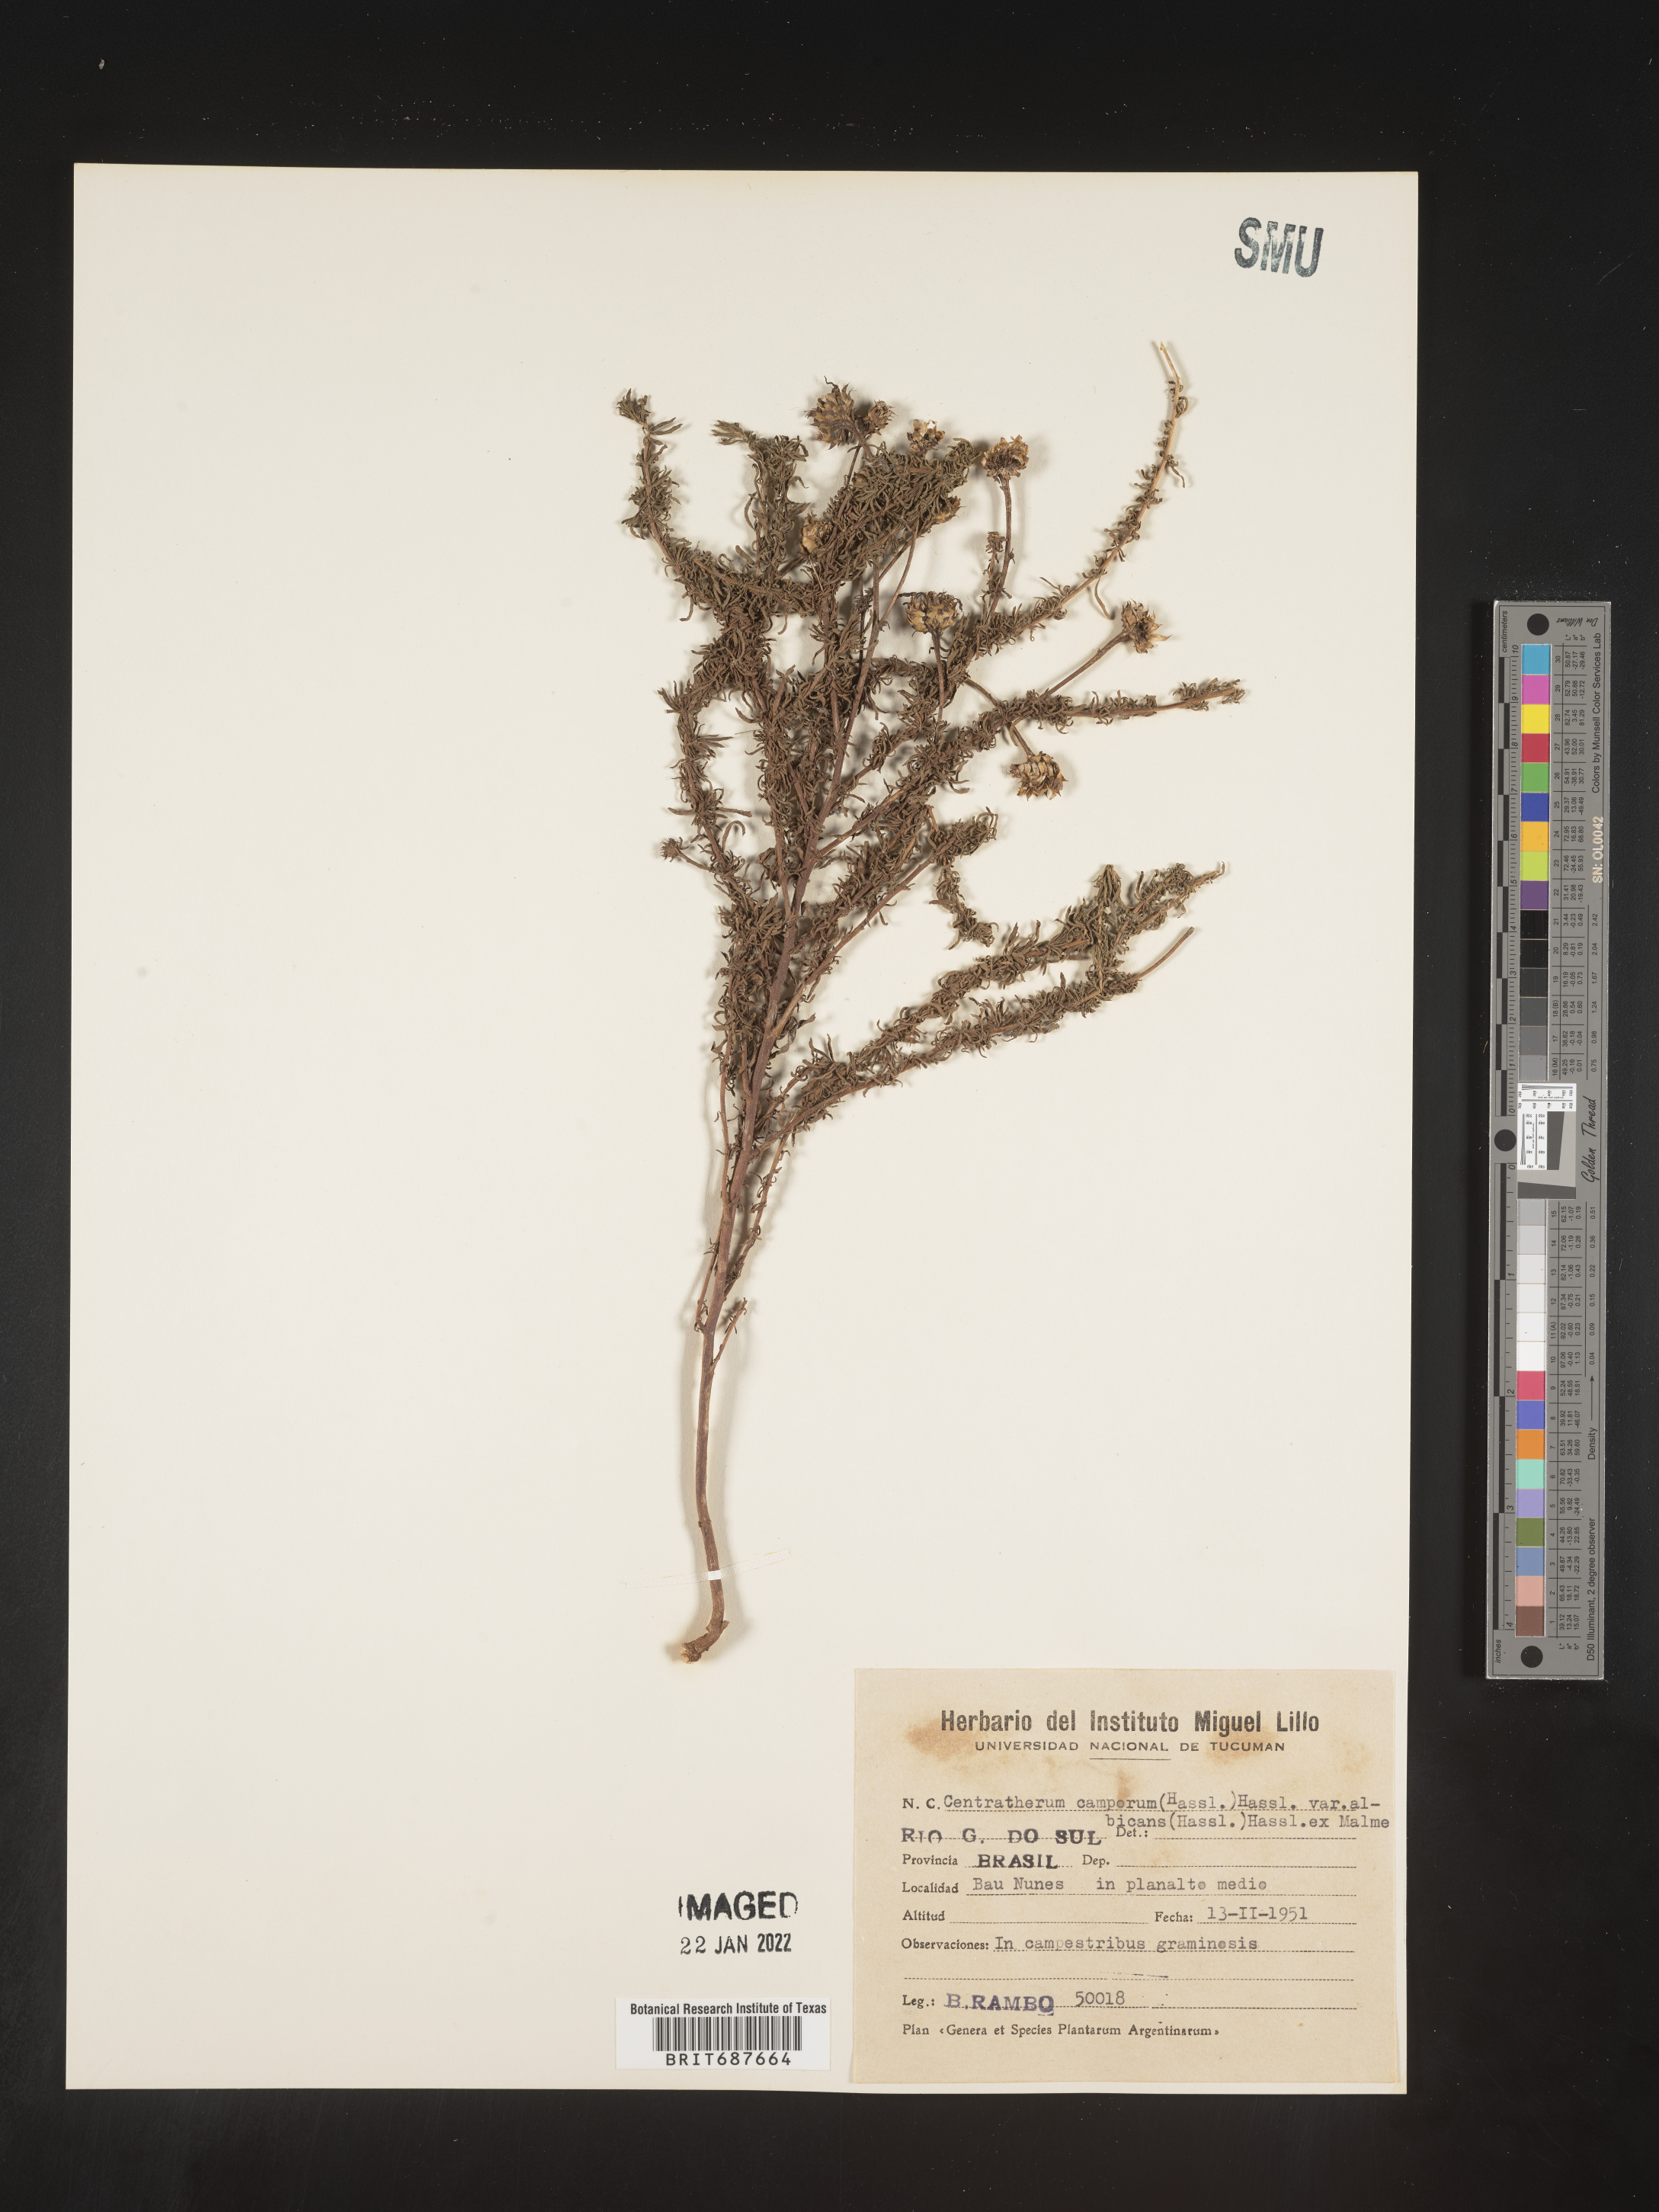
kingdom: Plantae
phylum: Tracheophyta
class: Magnoliopsida
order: Asterales
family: Asteraceae
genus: Centratherum
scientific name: Centratherum
